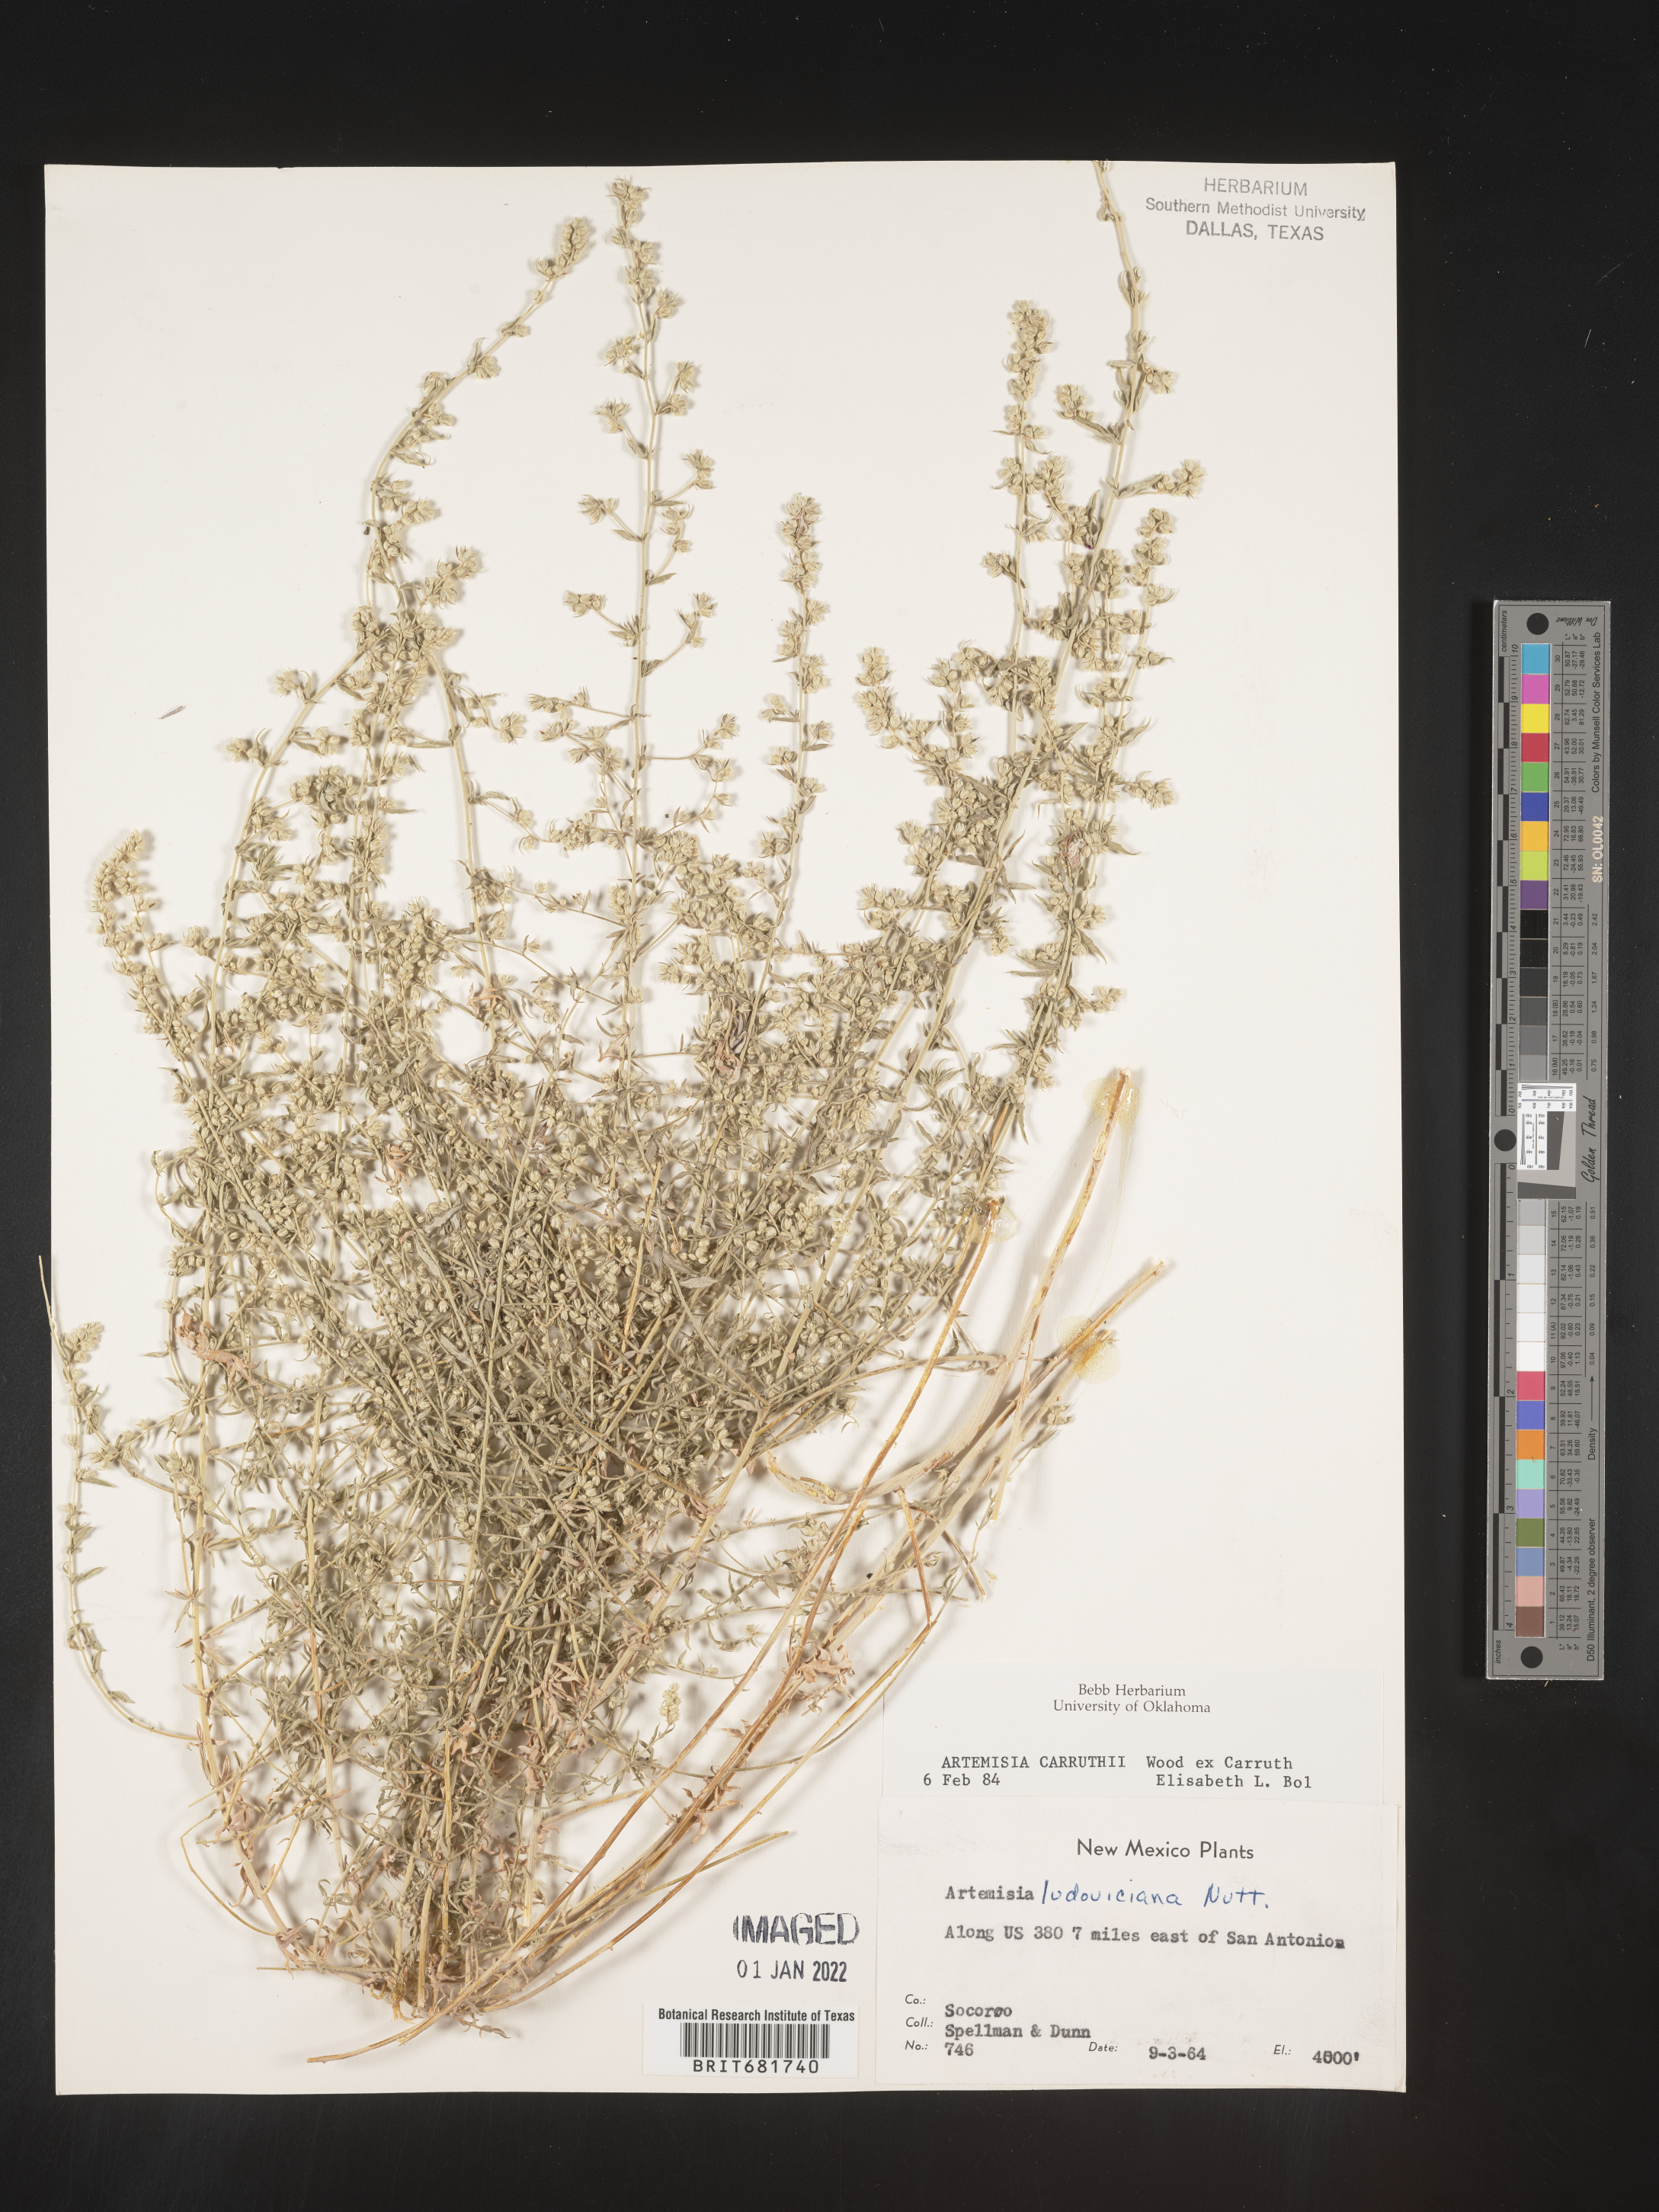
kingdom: Plantae
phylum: Tracheophyta
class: Magnoliopsida
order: Asterales
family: Asteraceae
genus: Artemisia
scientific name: Artemisia carruthii
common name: Carruth wormwood
